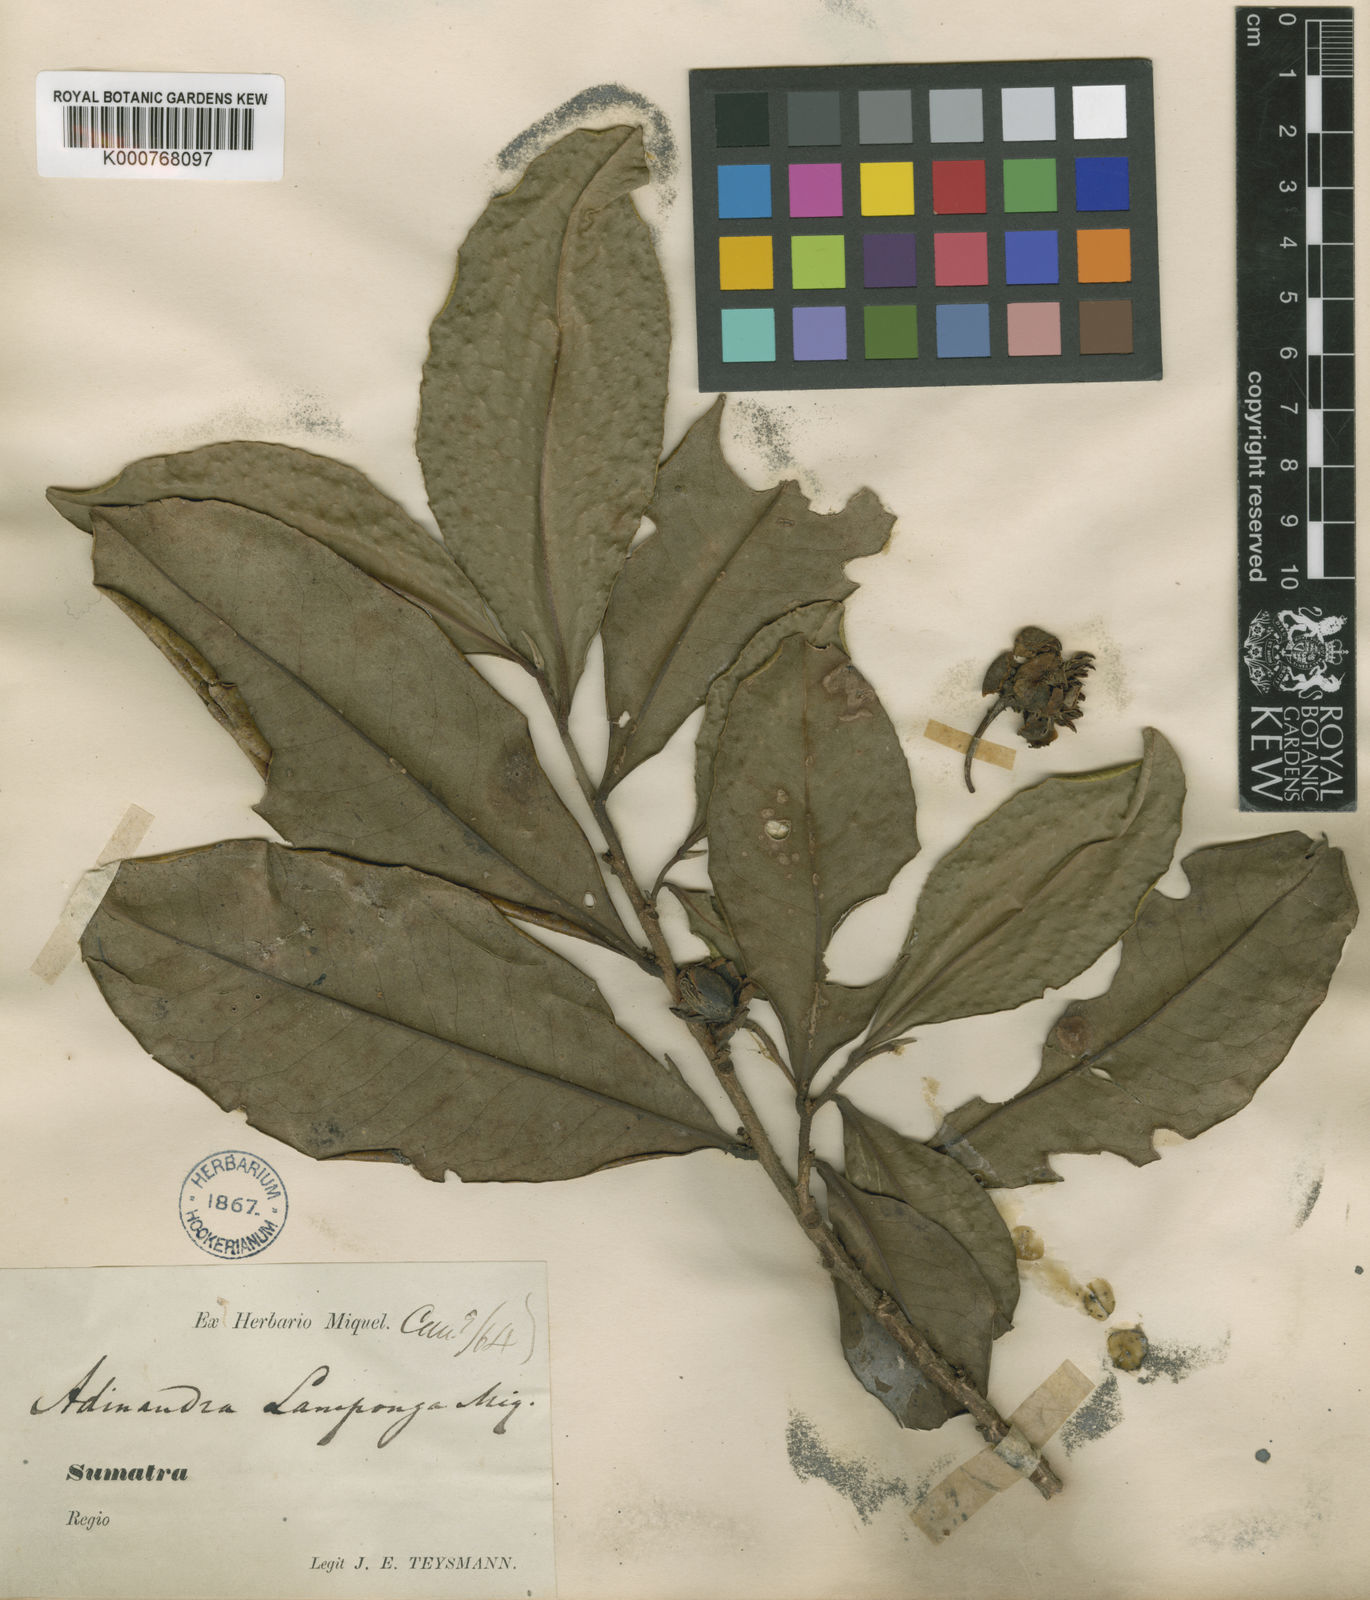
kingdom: Plantae
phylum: Tracheophyta
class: Magnoliopsida
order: Ericales
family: Pentaphylacaceae
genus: Adinandra
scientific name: Adinandra sarosanthera
